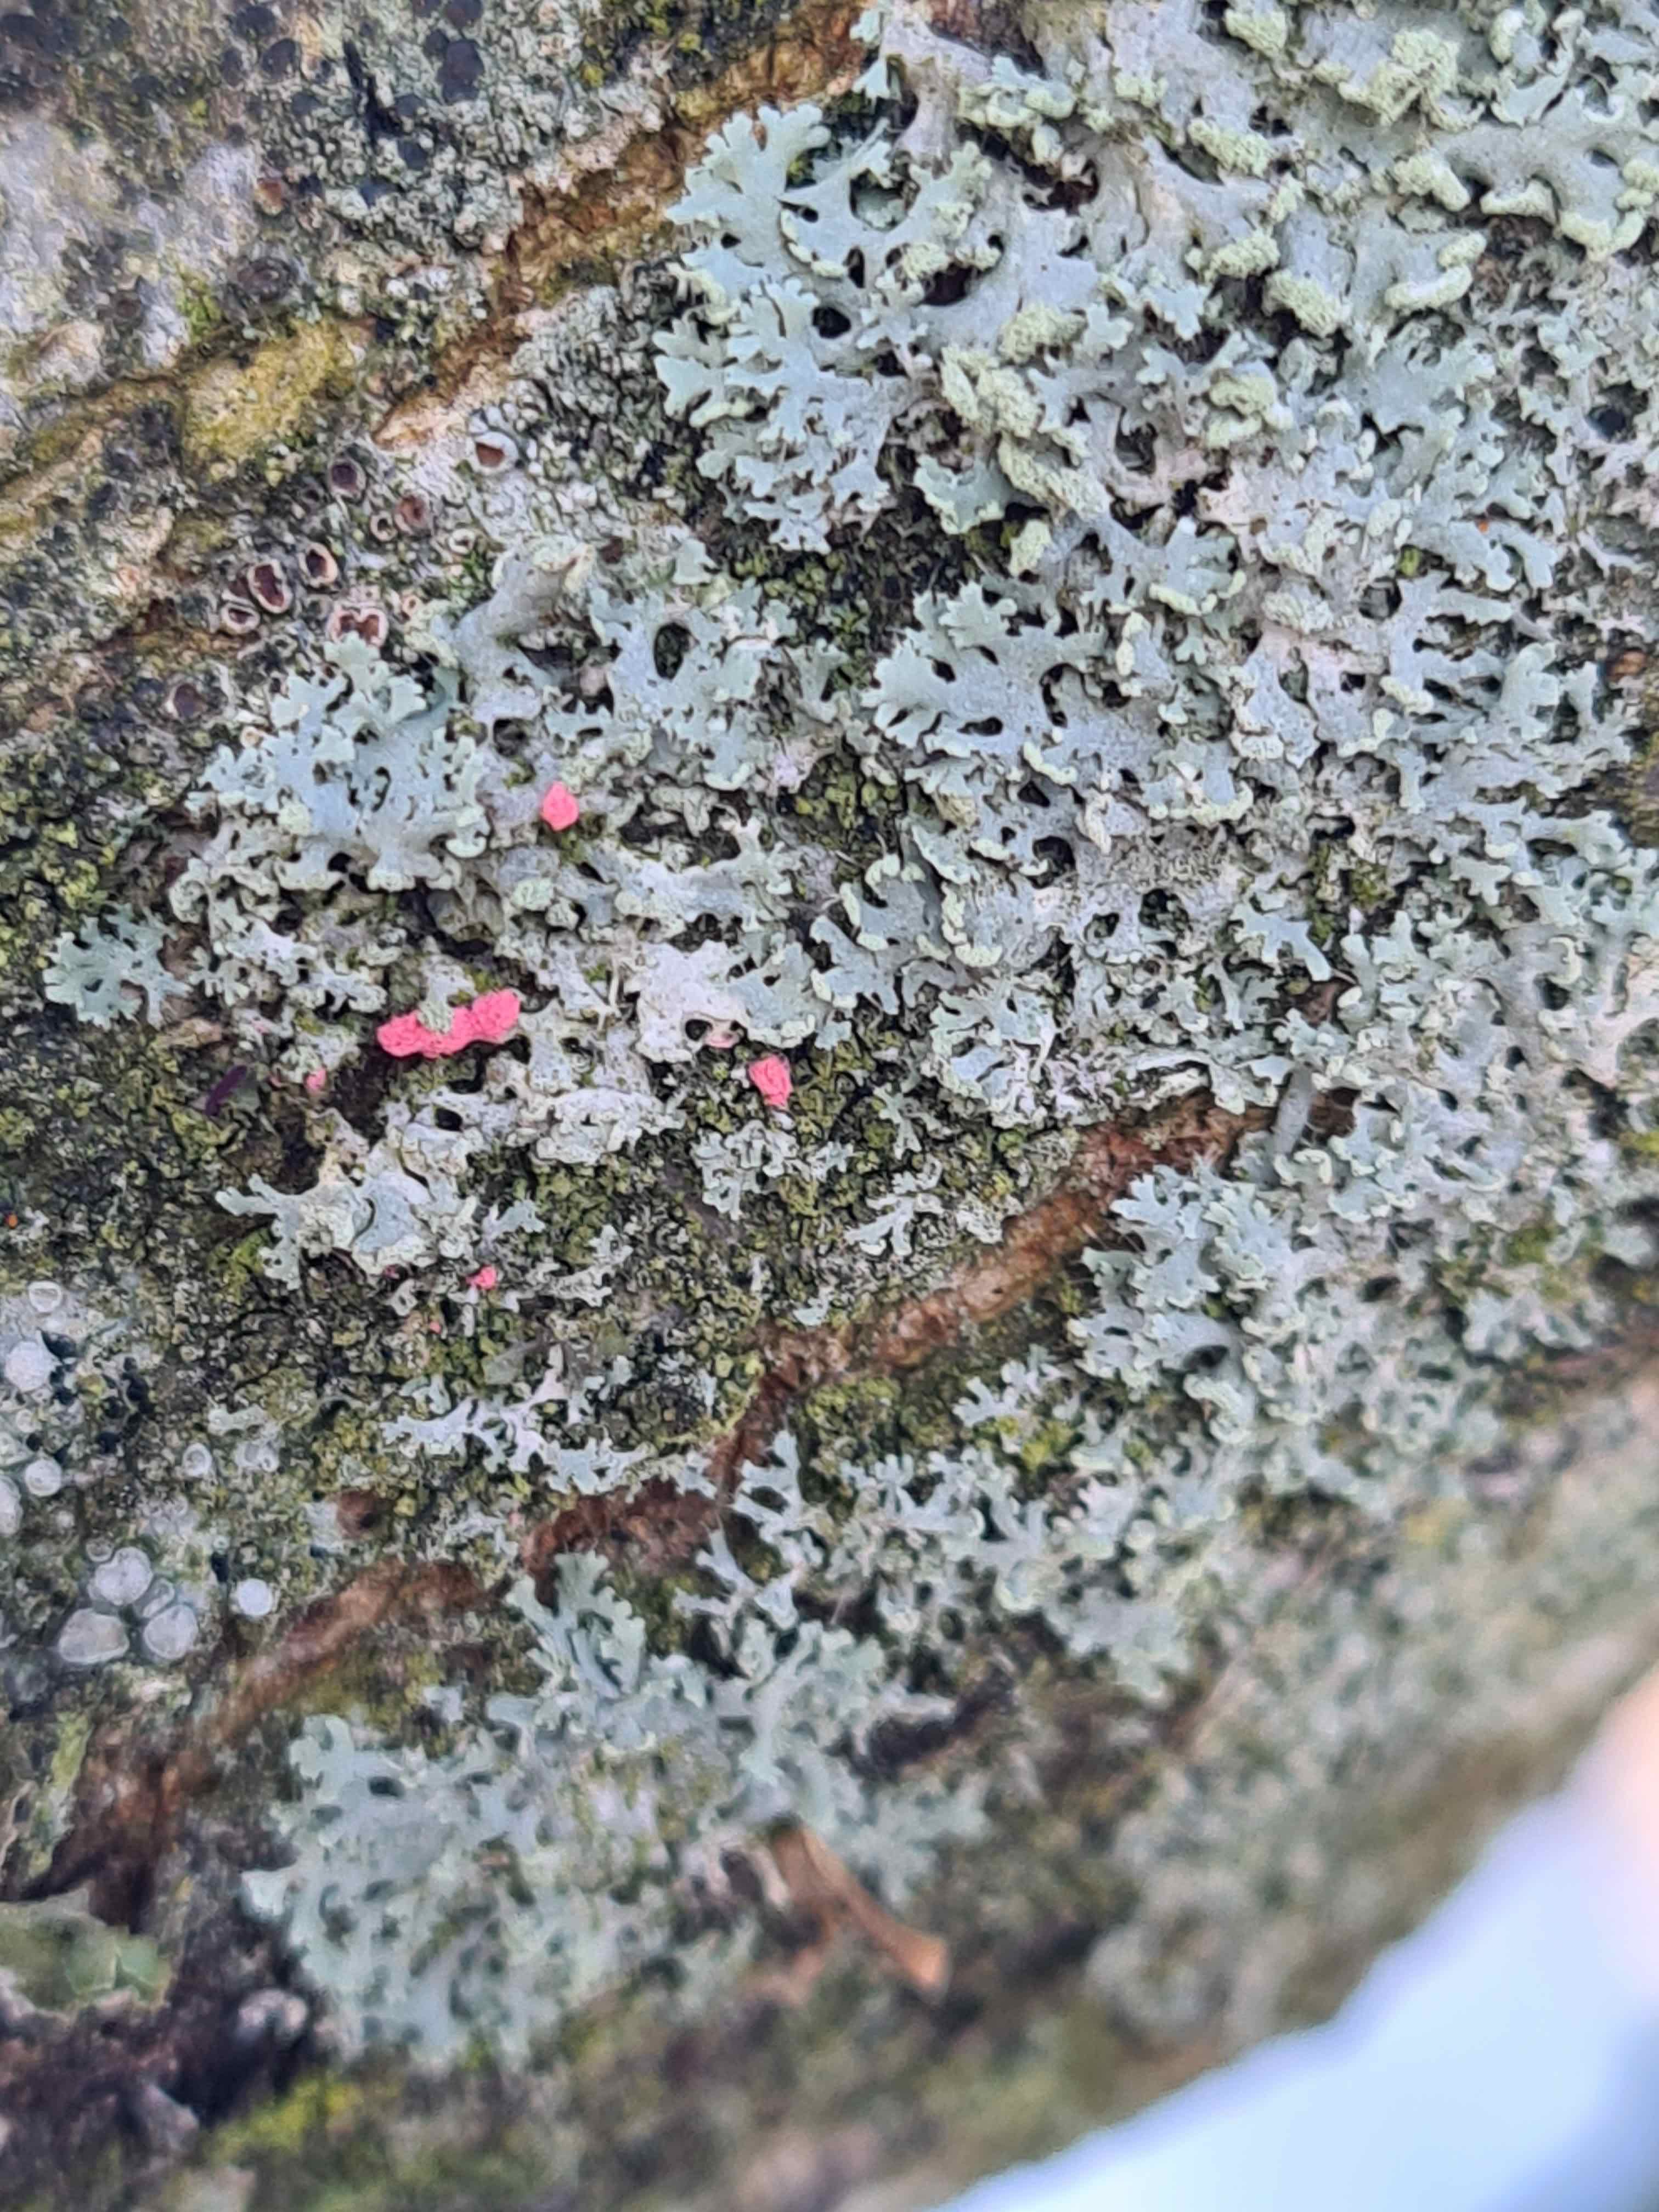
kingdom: Fungi
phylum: Ascomycota
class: Sordariomycetes
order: Hypocreales
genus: Illosporiopsis
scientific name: Illosporiopsis christiansenii
